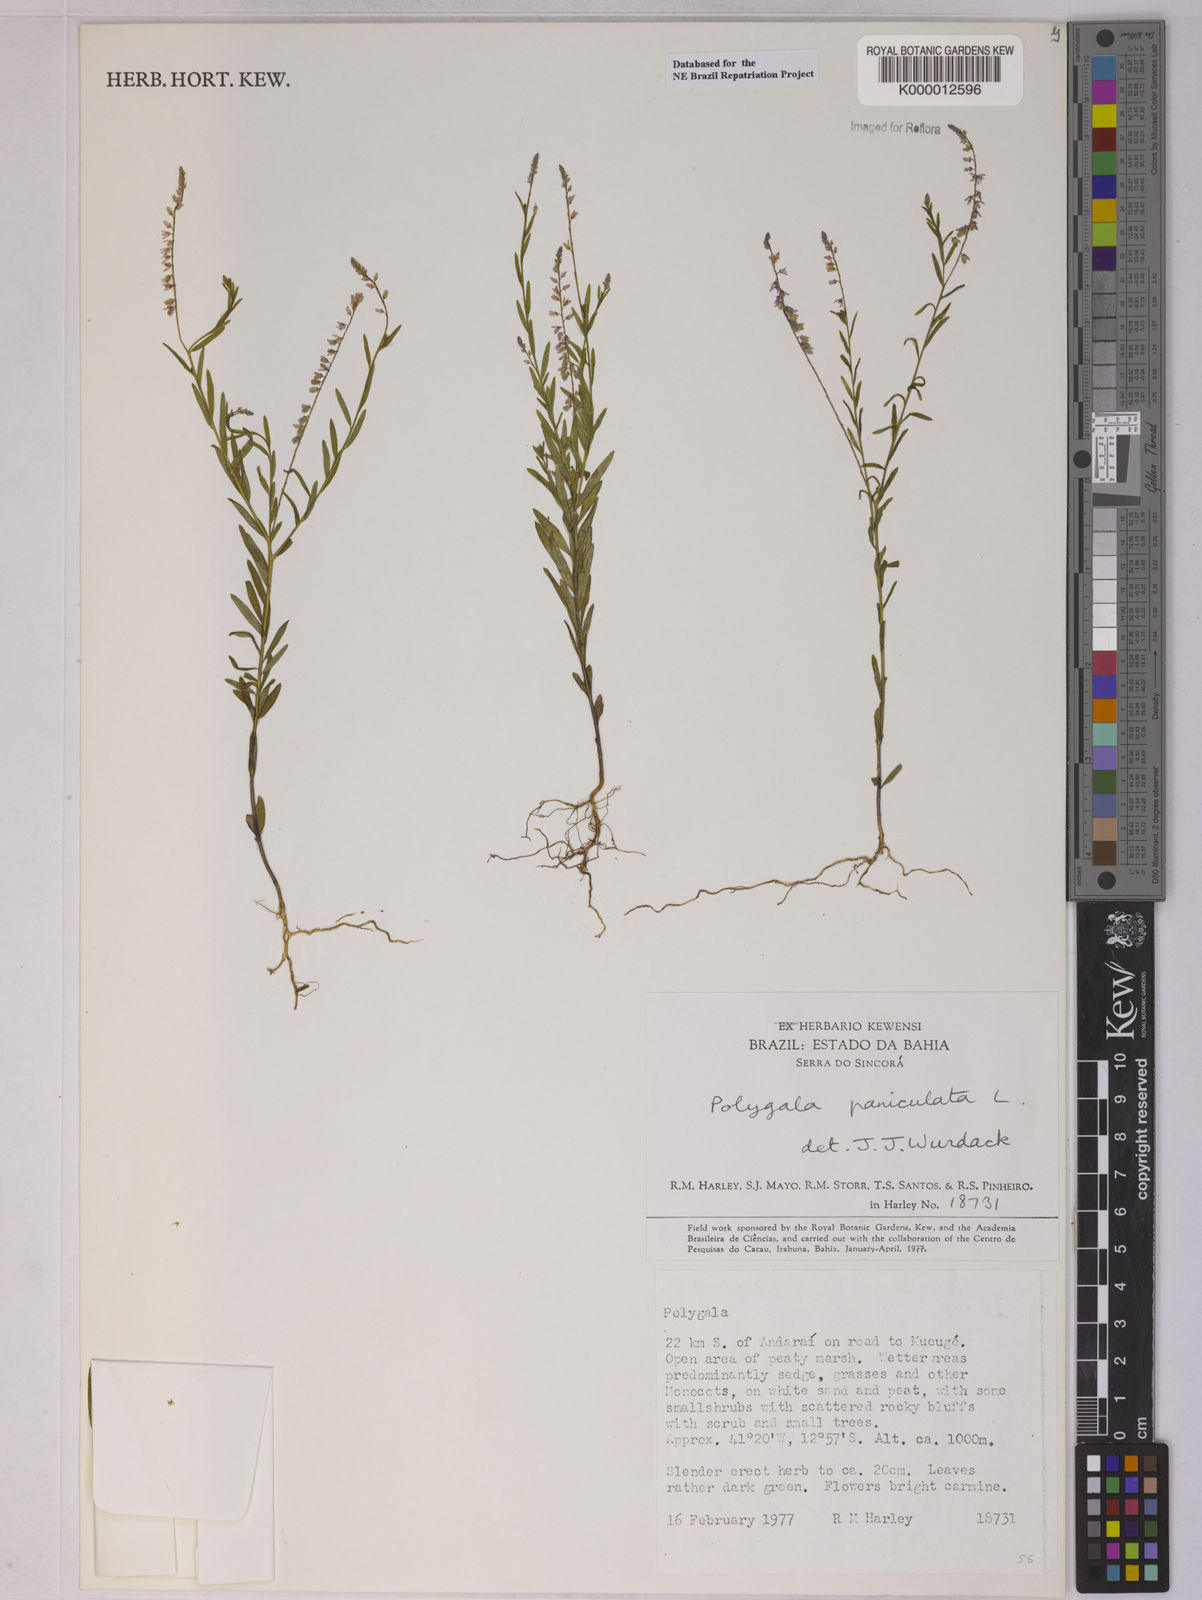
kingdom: Plantae
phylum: Tracheophyta
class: Magnoliopsida
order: Fabales
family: Polygalaceae
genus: Polygala
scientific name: Polygala paniculata
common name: Orosne
